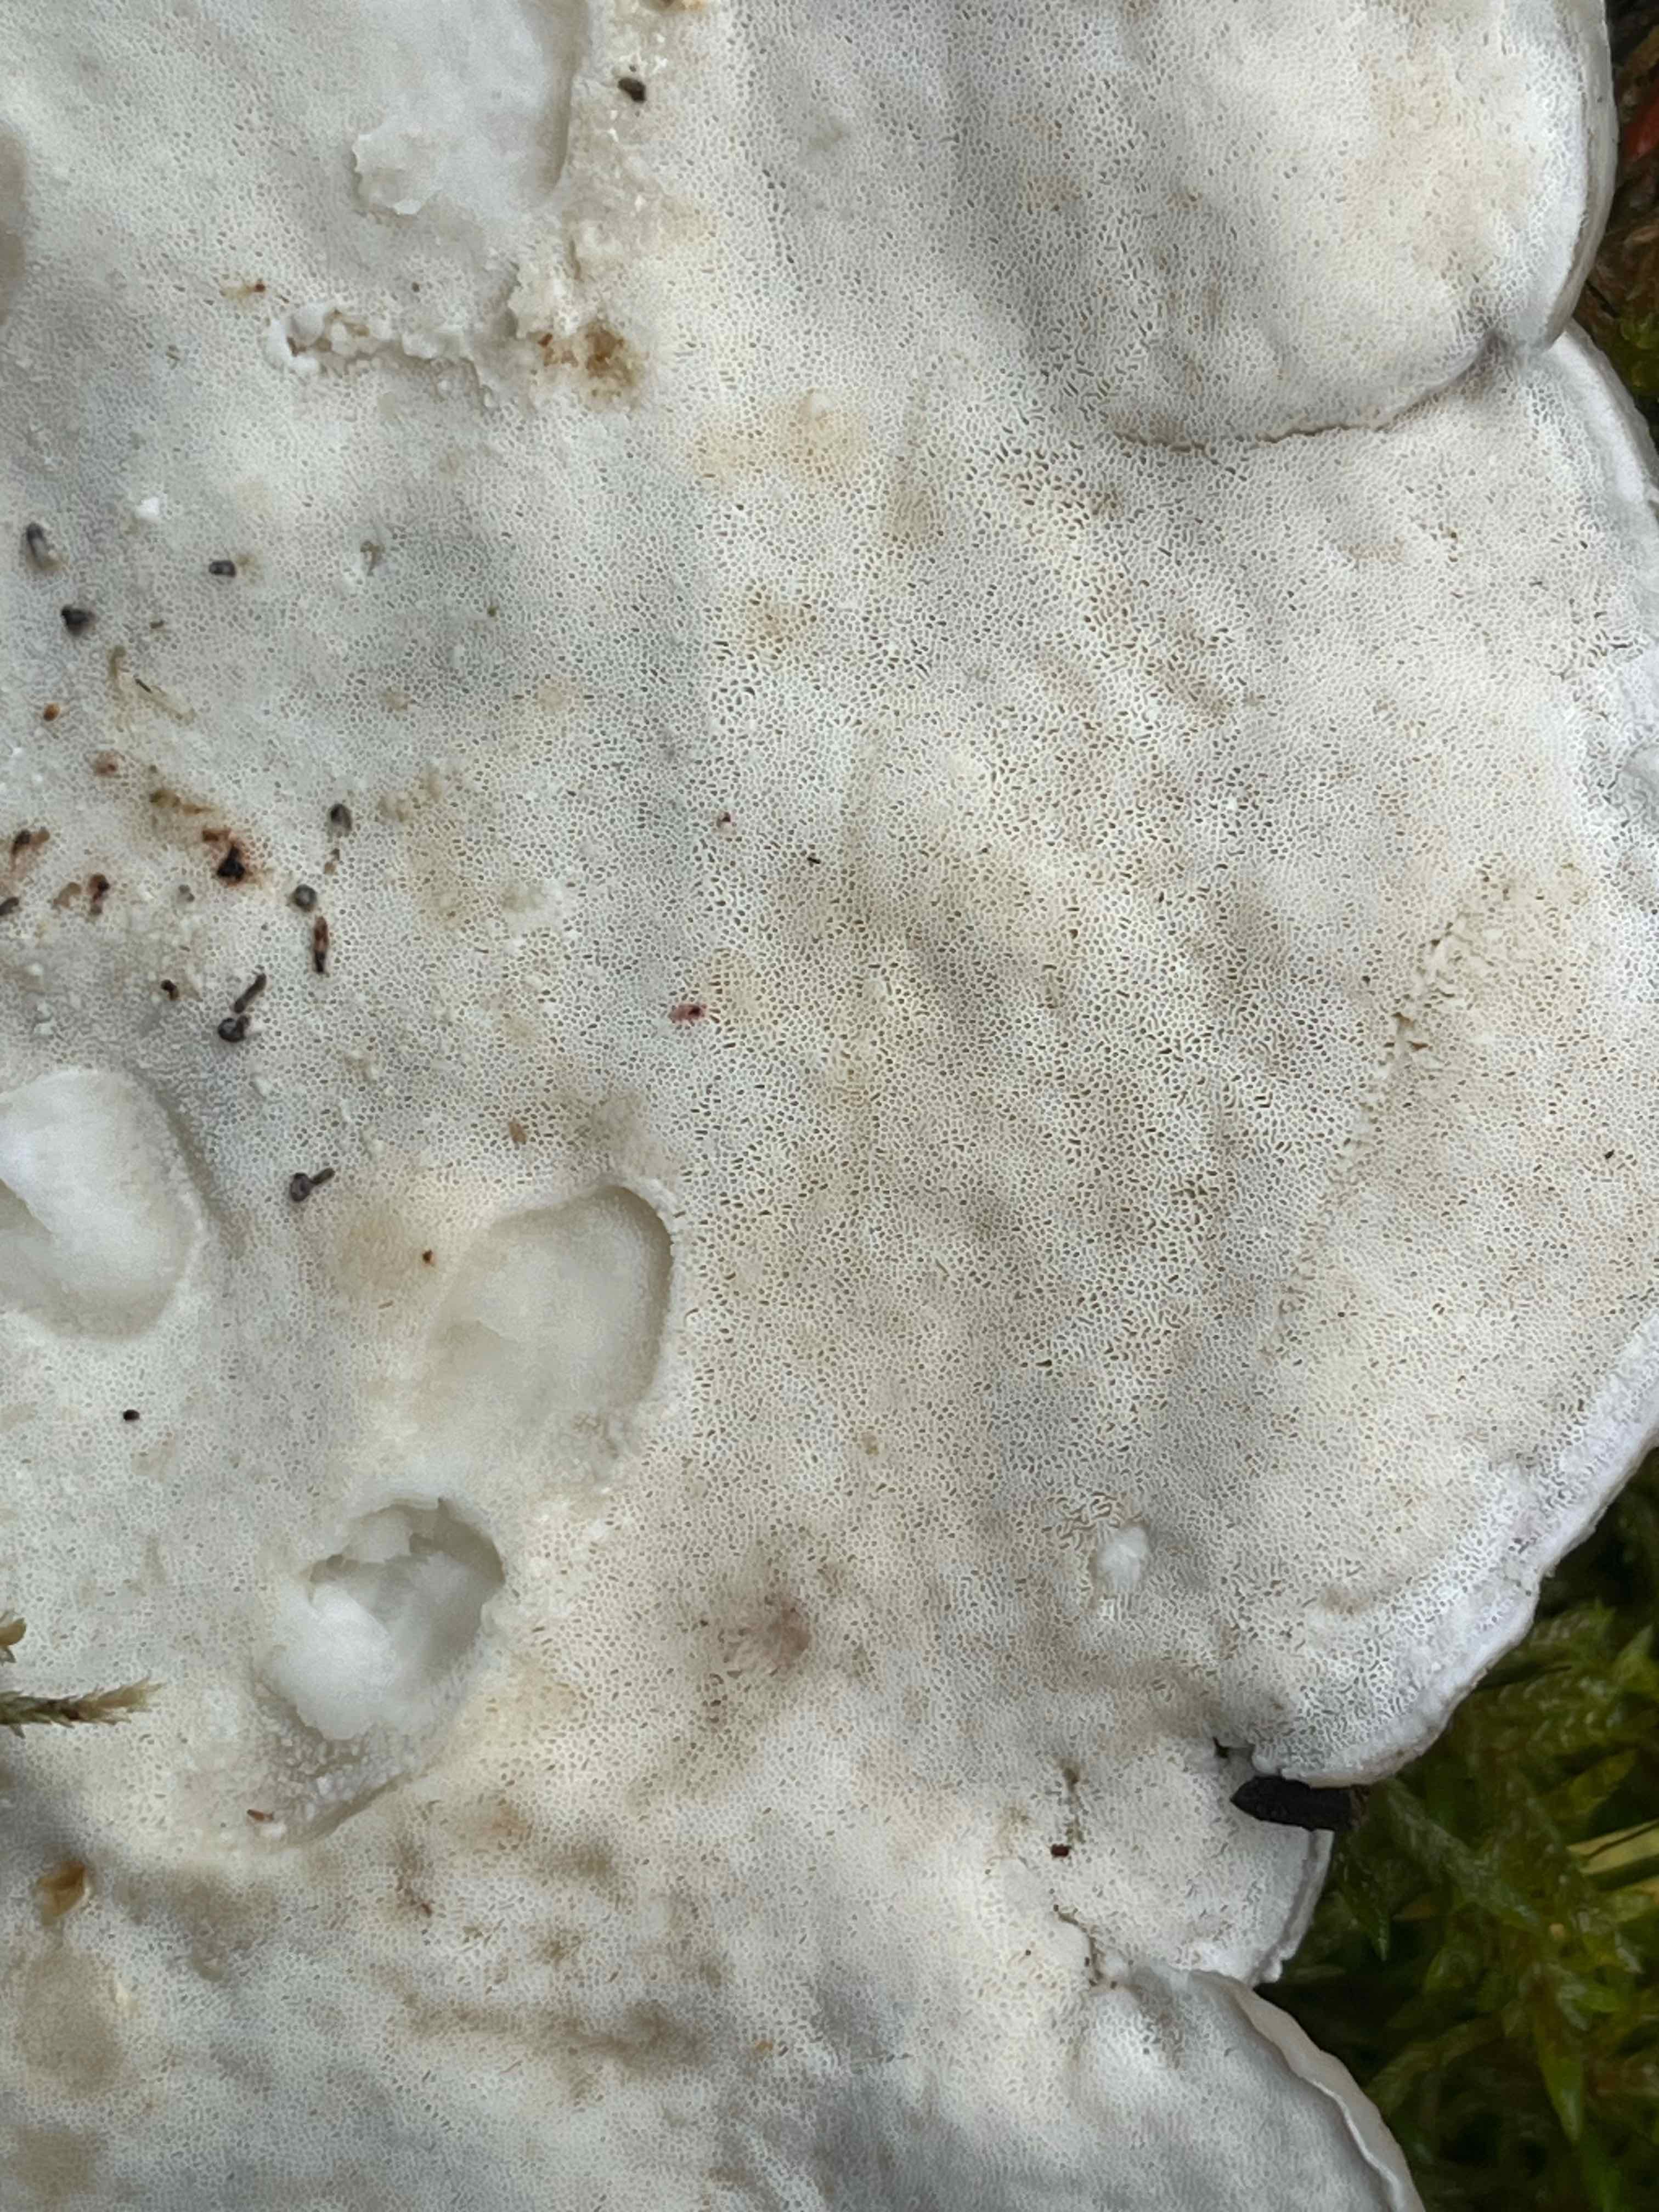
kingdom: Fungi
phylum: Basidiomycota
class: Agaricomycetes
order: Polyporales
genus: Calcipostia
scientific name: Calcipostia guttulata
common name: dråbe-kødporesvamp
